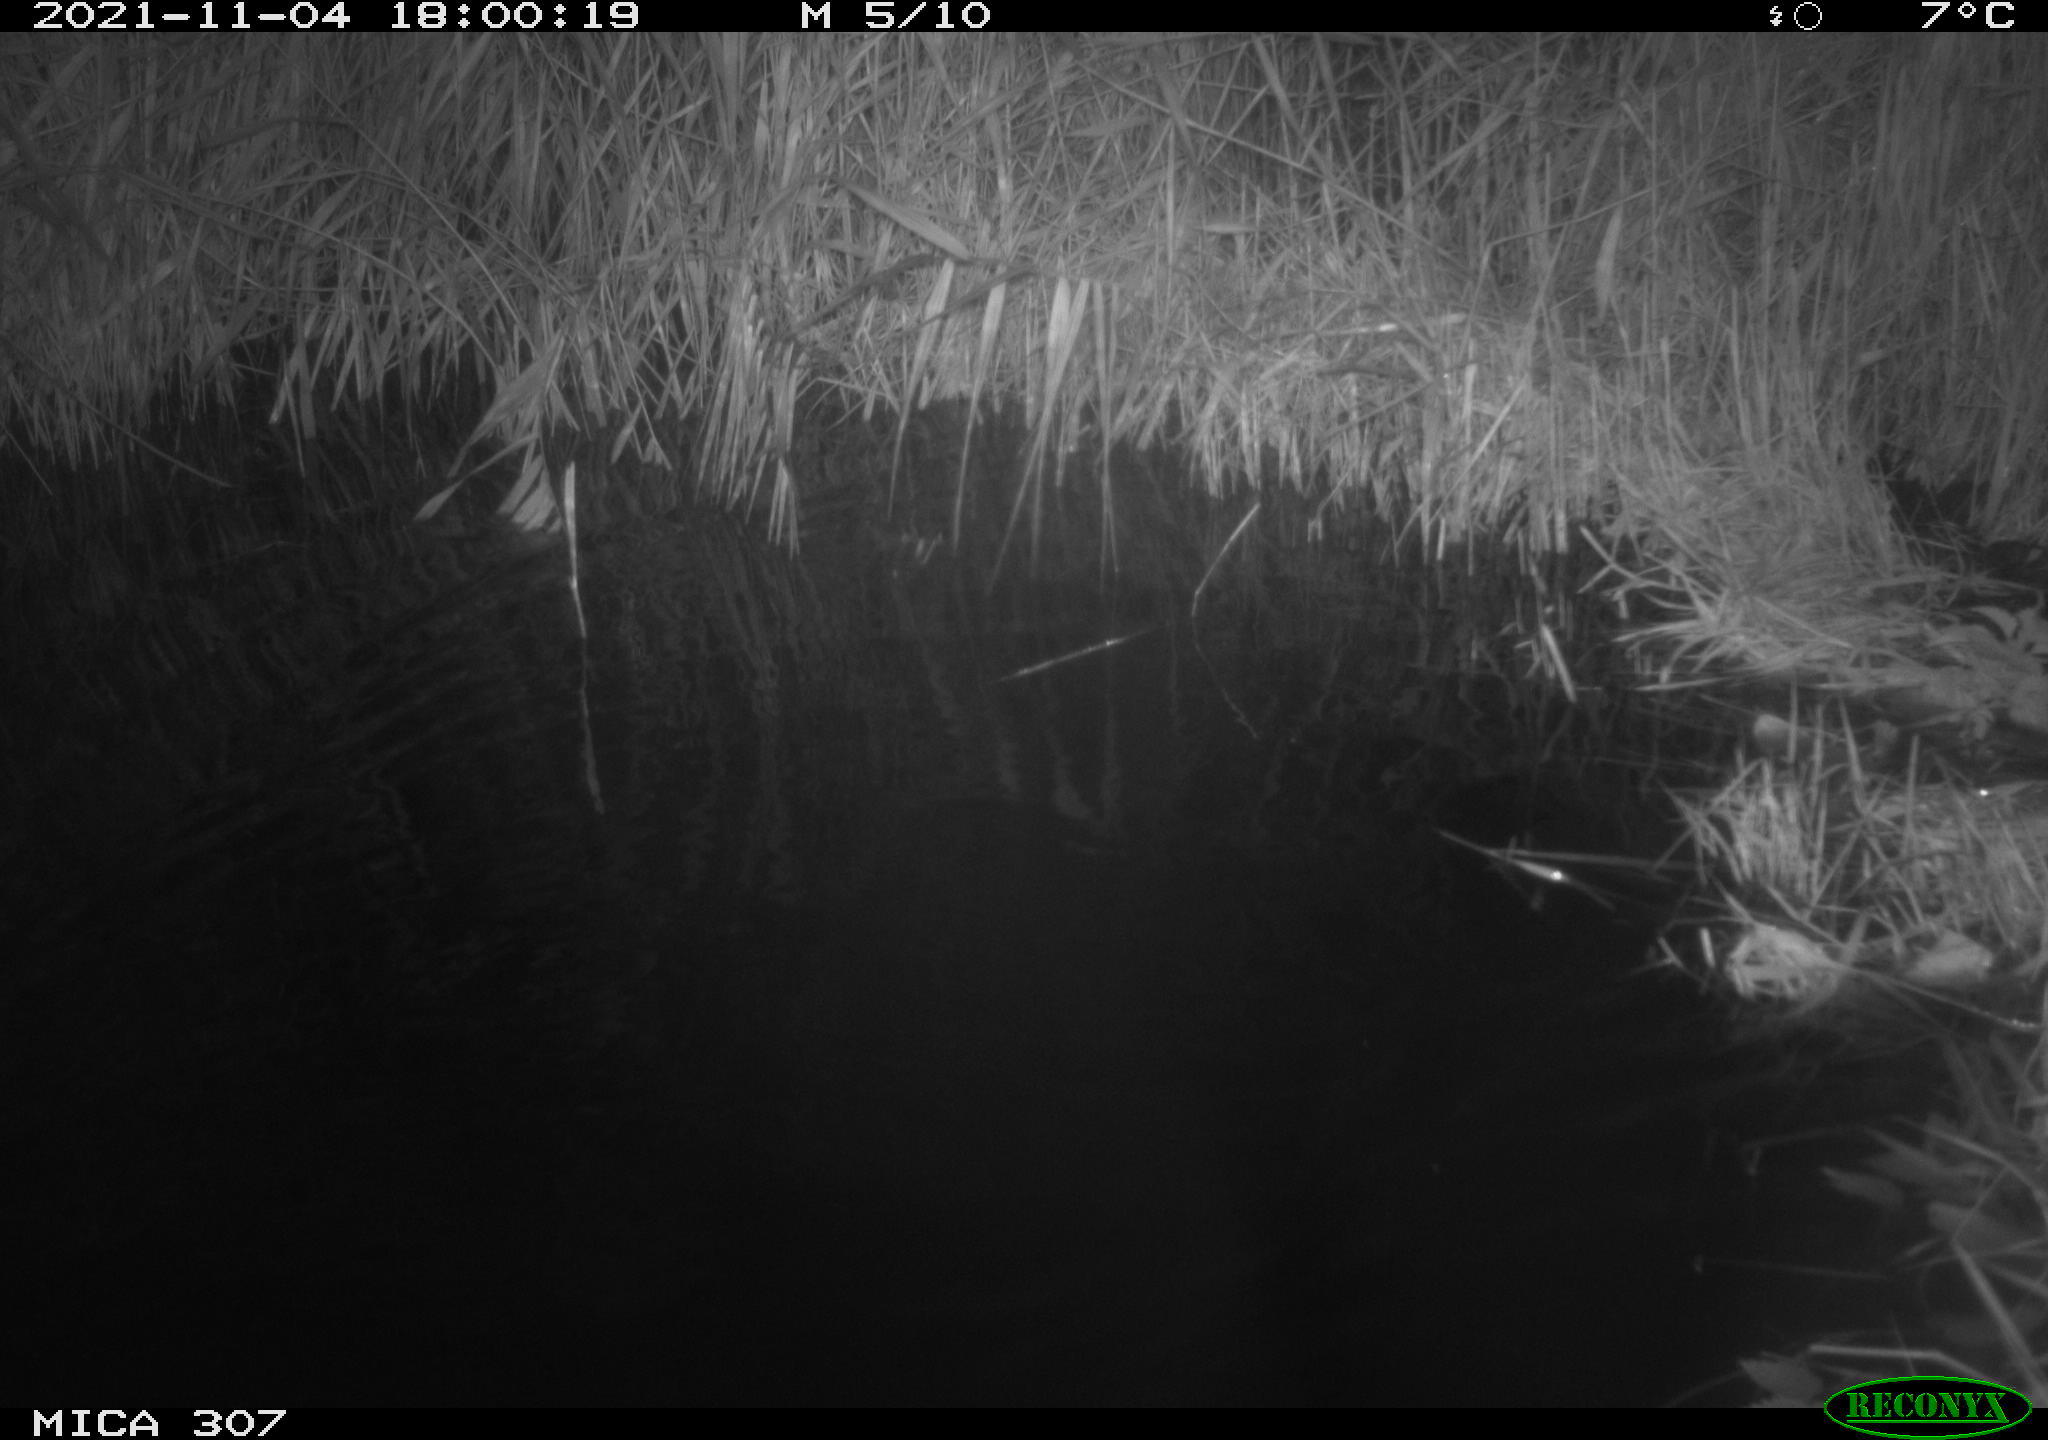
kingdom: Animalia
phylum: Chordata
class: Mammalia
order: Rodentia
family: Muridae
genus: Rattus
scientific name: Rattus norvegicus
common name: Brown rat
